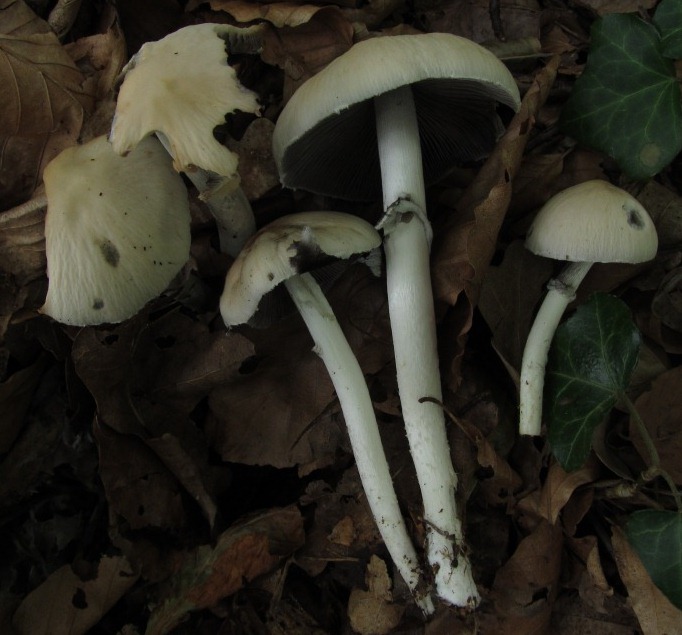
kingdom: Fungi
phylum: Basidiomycota
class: Agaricomycetes
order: Agaricales
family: Psathyrellaceae
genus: Candolleomyces
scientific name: Candolleomyces leucotephrus
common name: askehvid mørkhat
